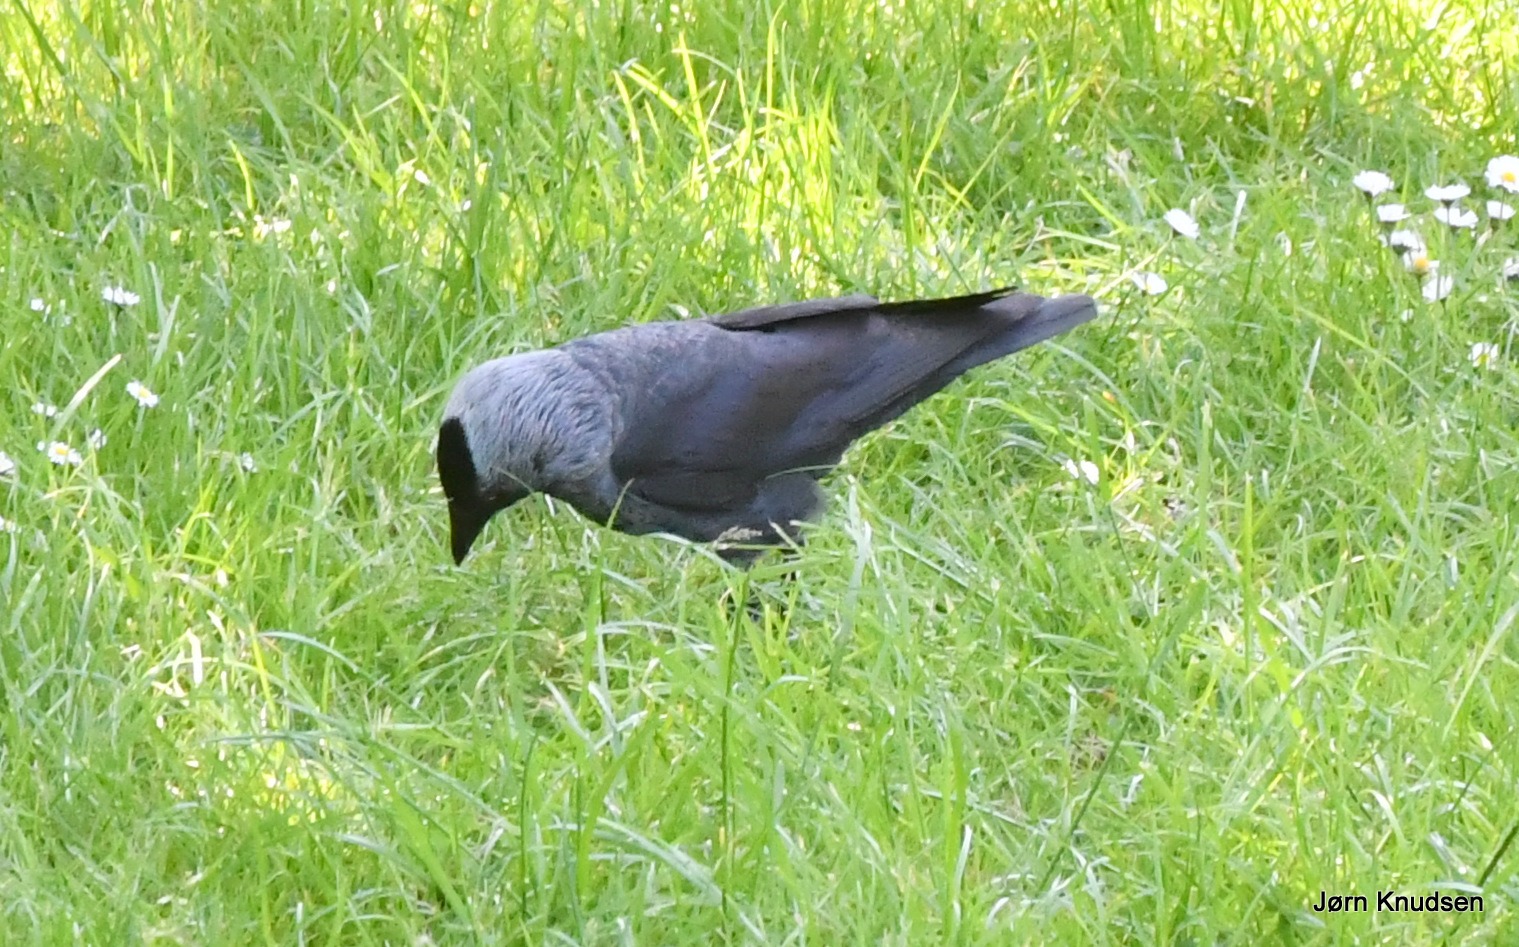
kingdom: Animalia
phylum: Chordata
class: Aves
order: Passeriformes
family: Corvidae
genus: Coloeus
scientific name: Coloeus monedula
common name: Allike
